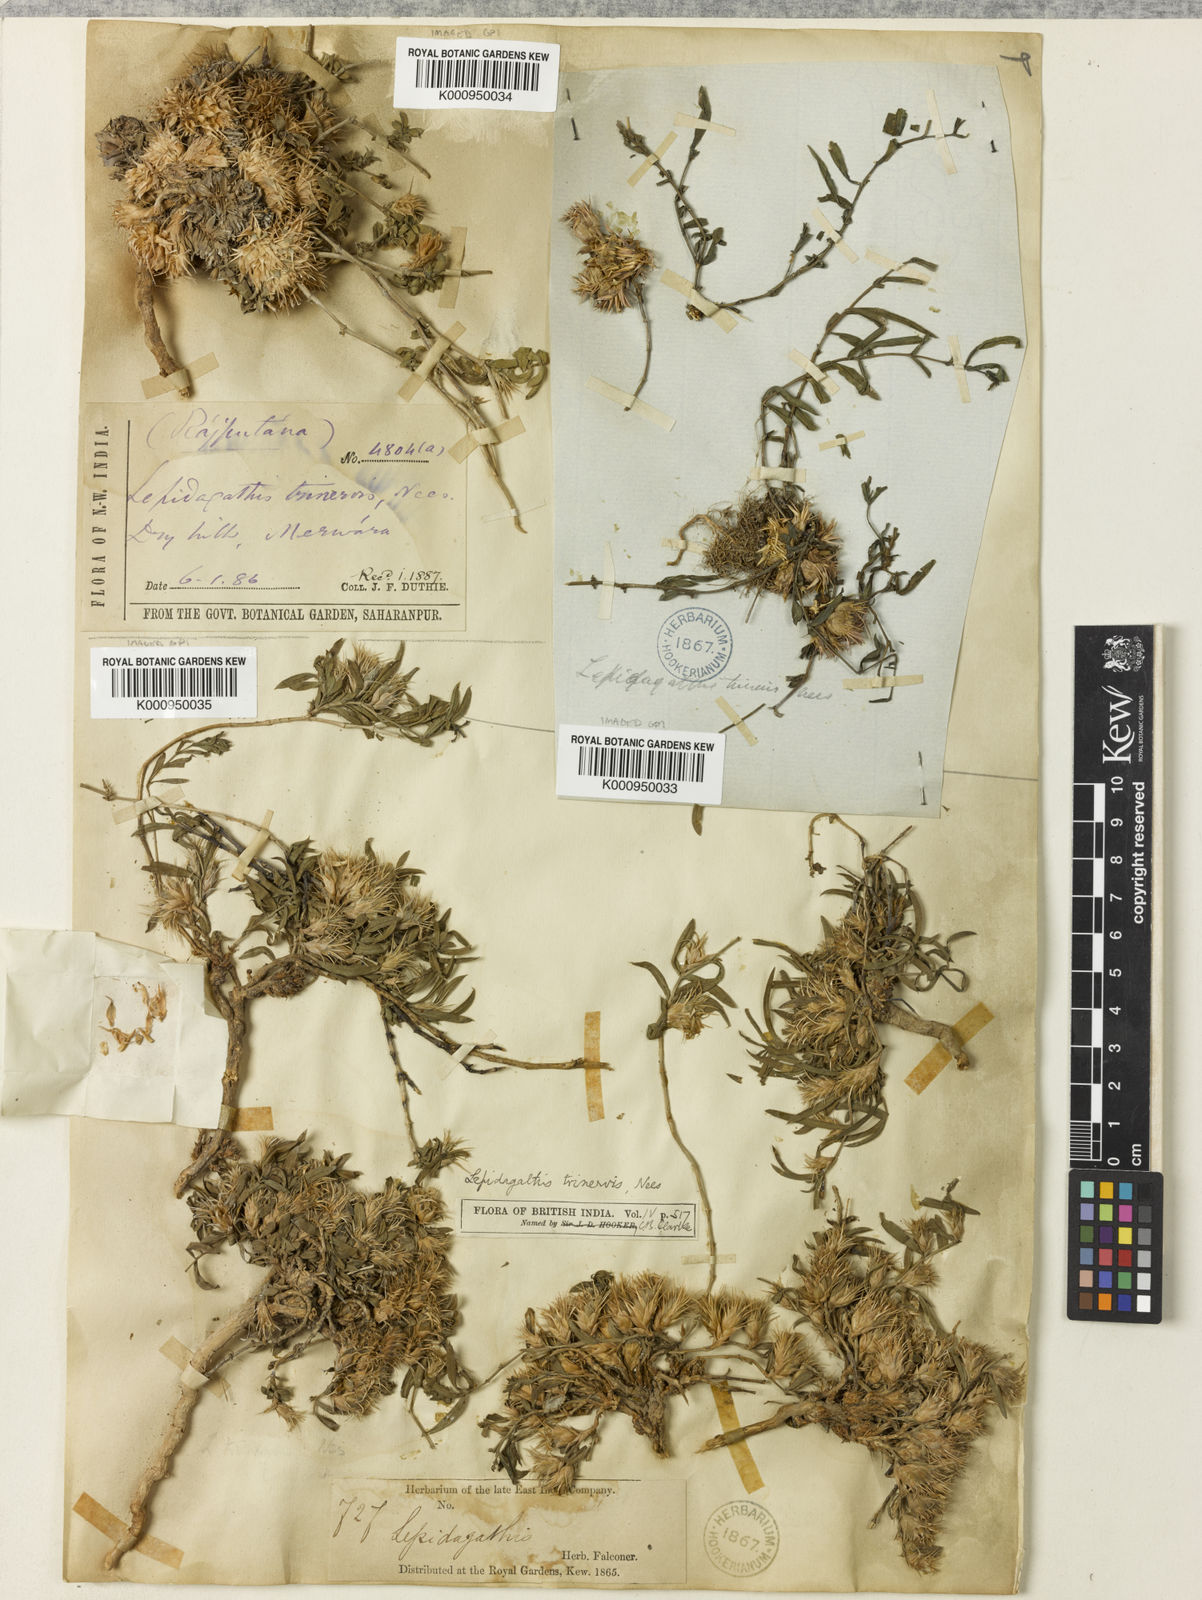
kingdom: Plantae
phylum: Tracheophyta
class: Magnoliopsida
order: Lamiales
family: Acanthaceae
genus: Lepidagathis
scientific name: Lepidagathis trinervis
